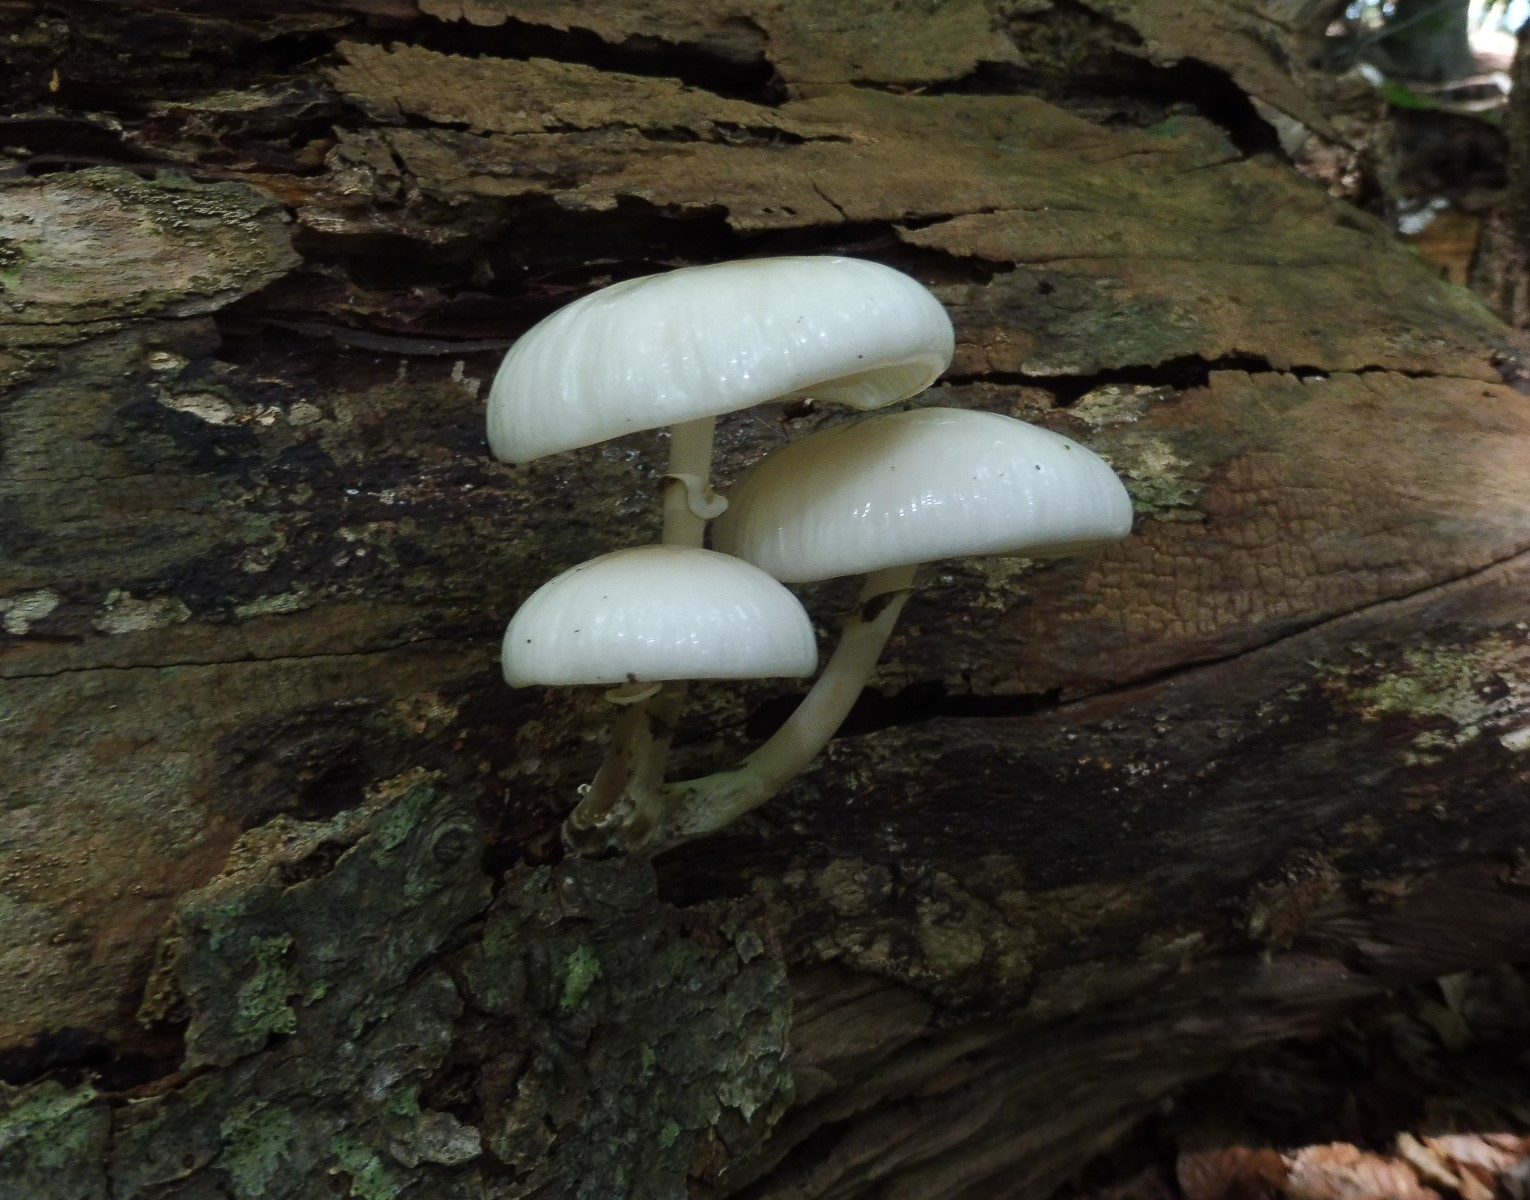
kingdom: Fungi
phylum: Basidiomycota
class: Agaricomycetes
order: Agaricales
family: Physalacriaceae
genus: Mucidula
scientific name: Mucidula mucida
